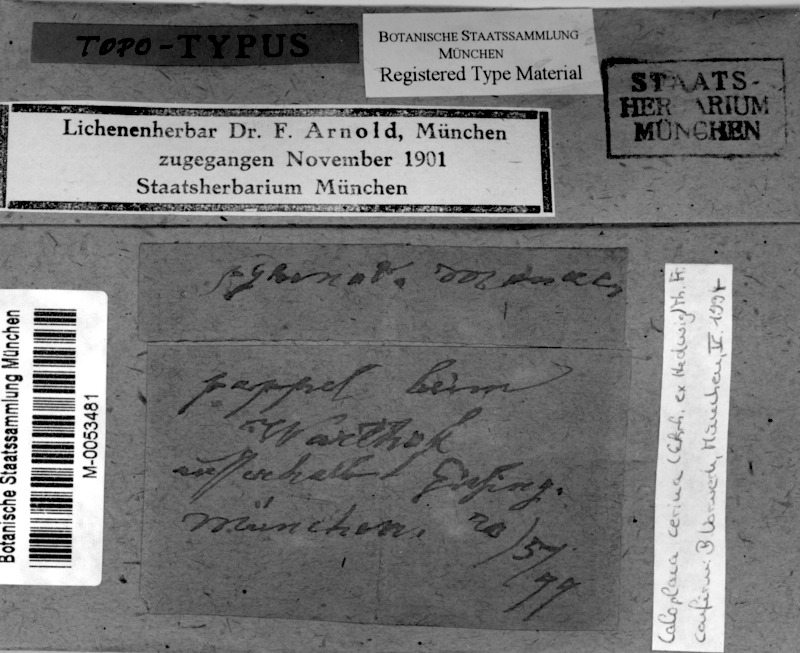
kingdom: Fungi
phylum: Ascomycota
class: Lecanoromycetes
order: Teloschistales
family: Teloschistaceae
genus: Caloplaca
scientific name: Caloplaca monacensis
